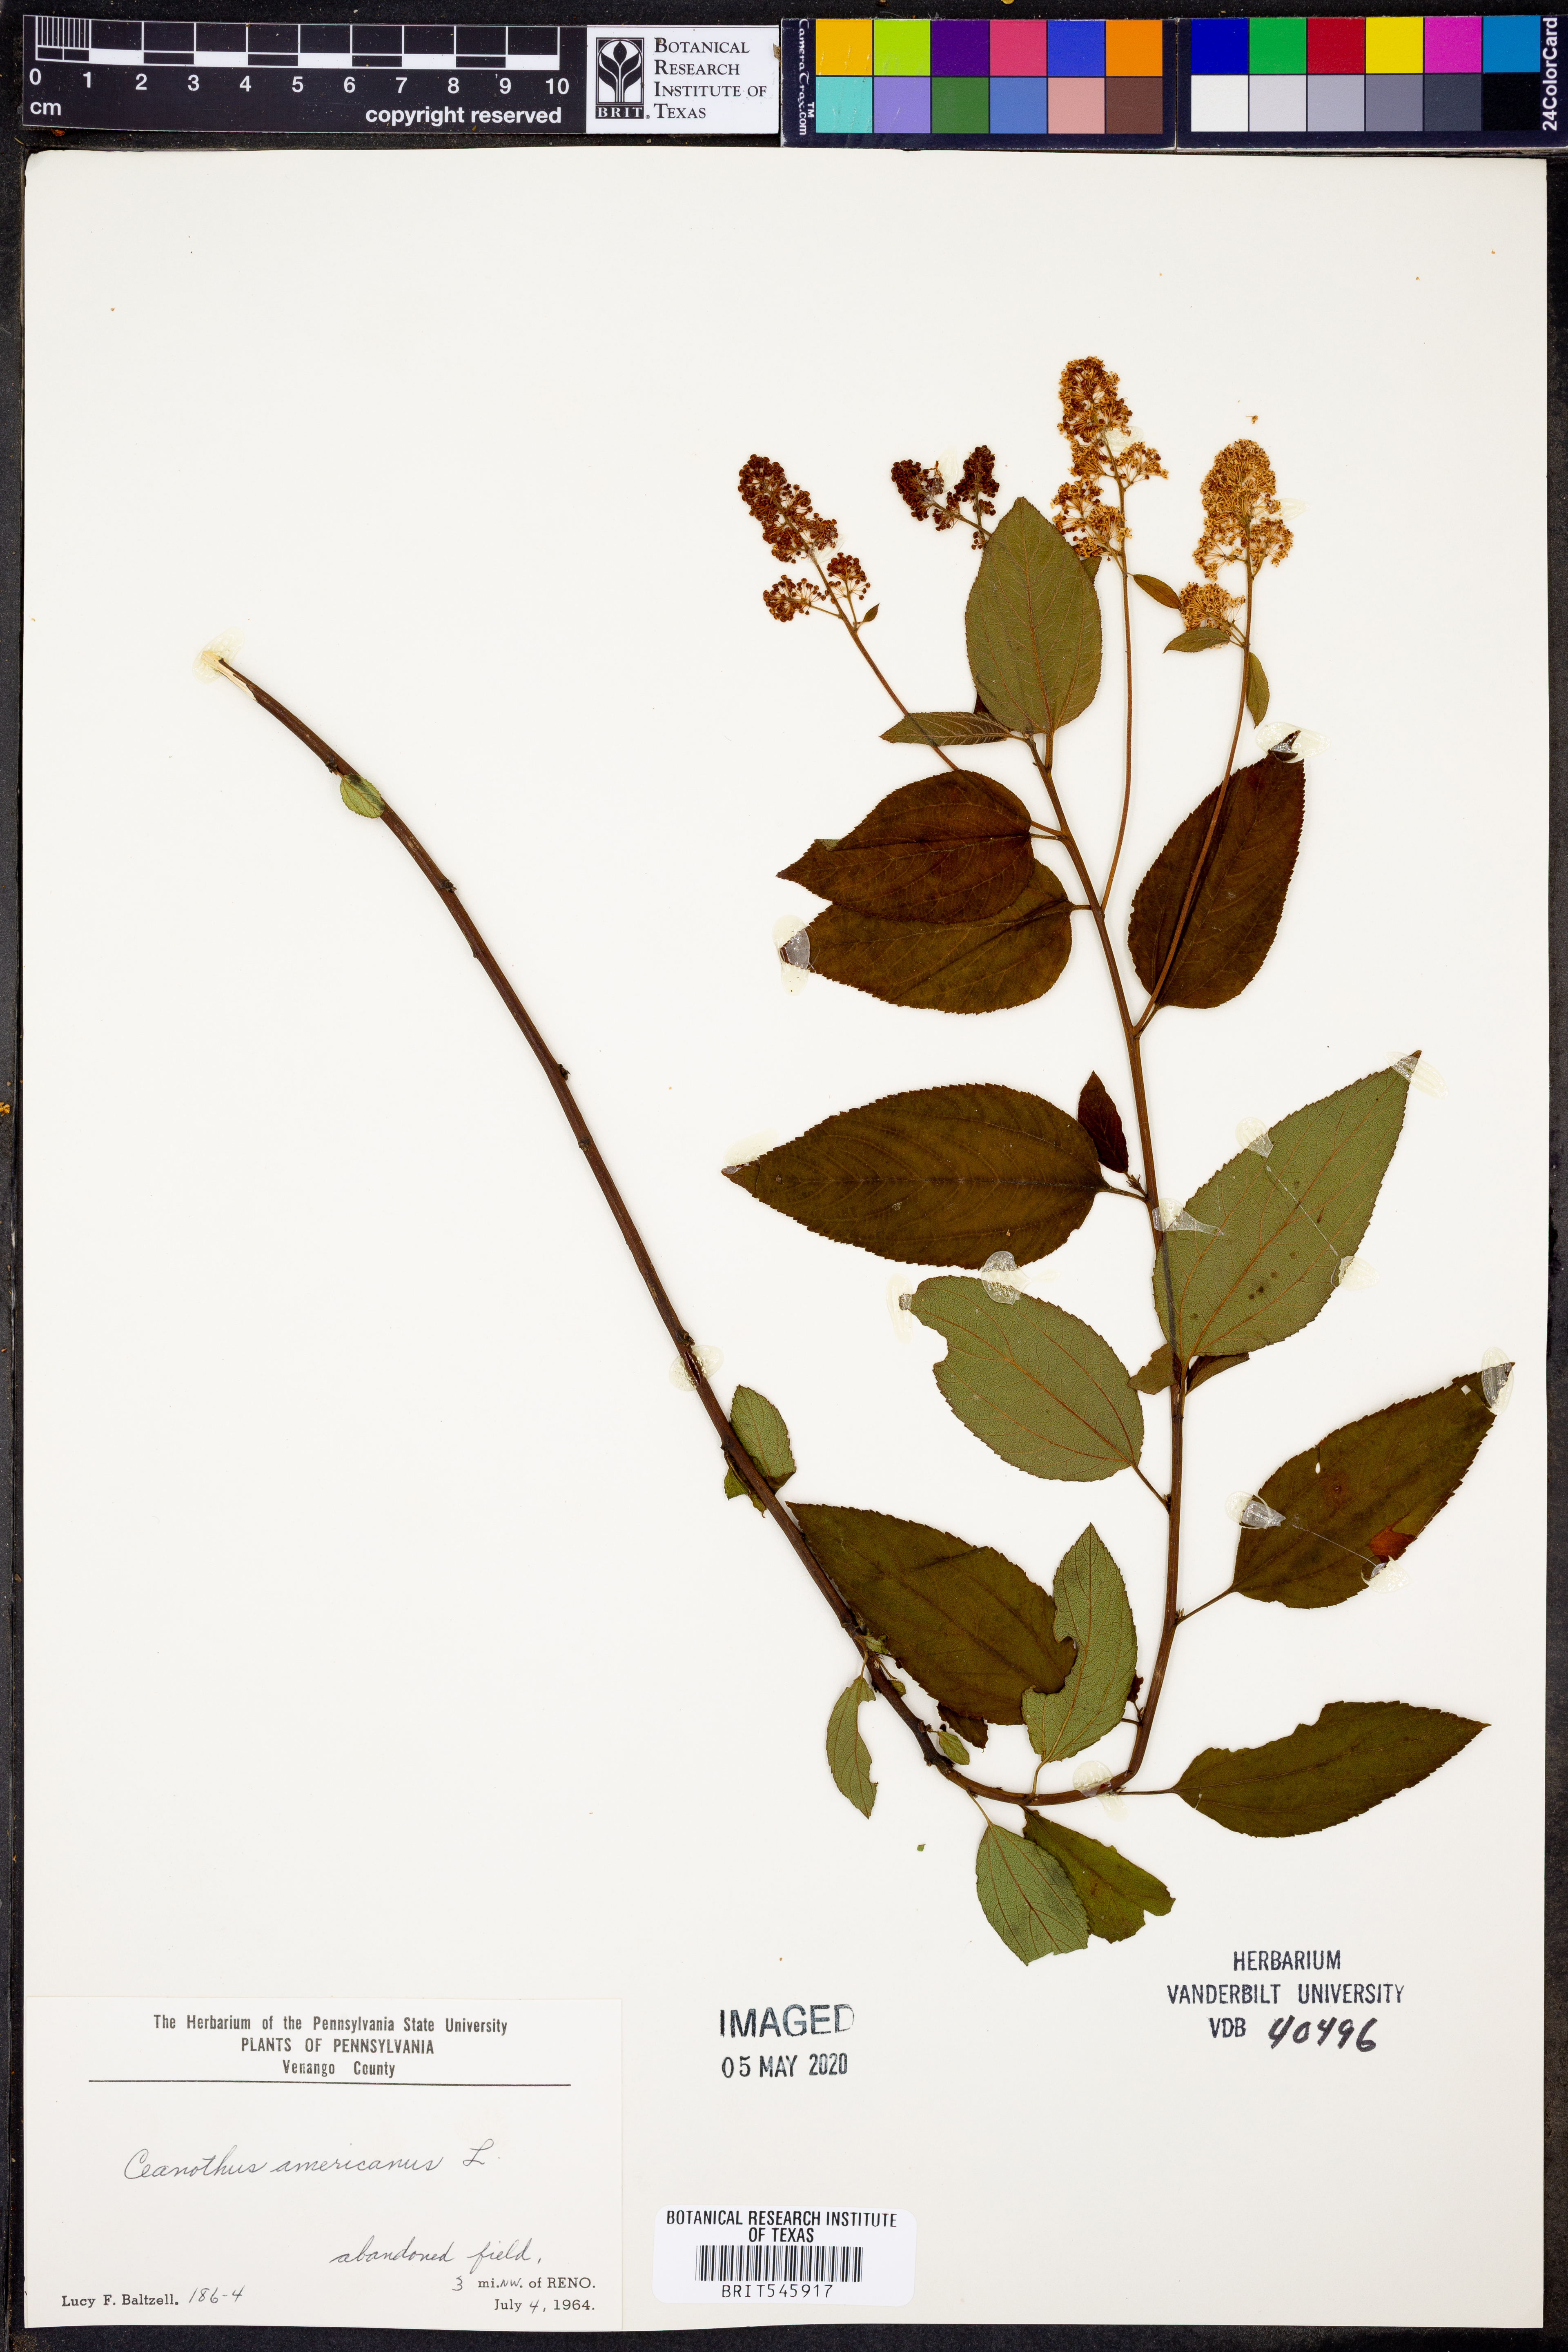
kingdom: Plantae
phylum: Tracheophyta
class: Magnoliopsida
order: Rosales
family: Rhamnaceae
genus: Ceanothus
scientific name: Ceanothus americanus
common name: Redroot
